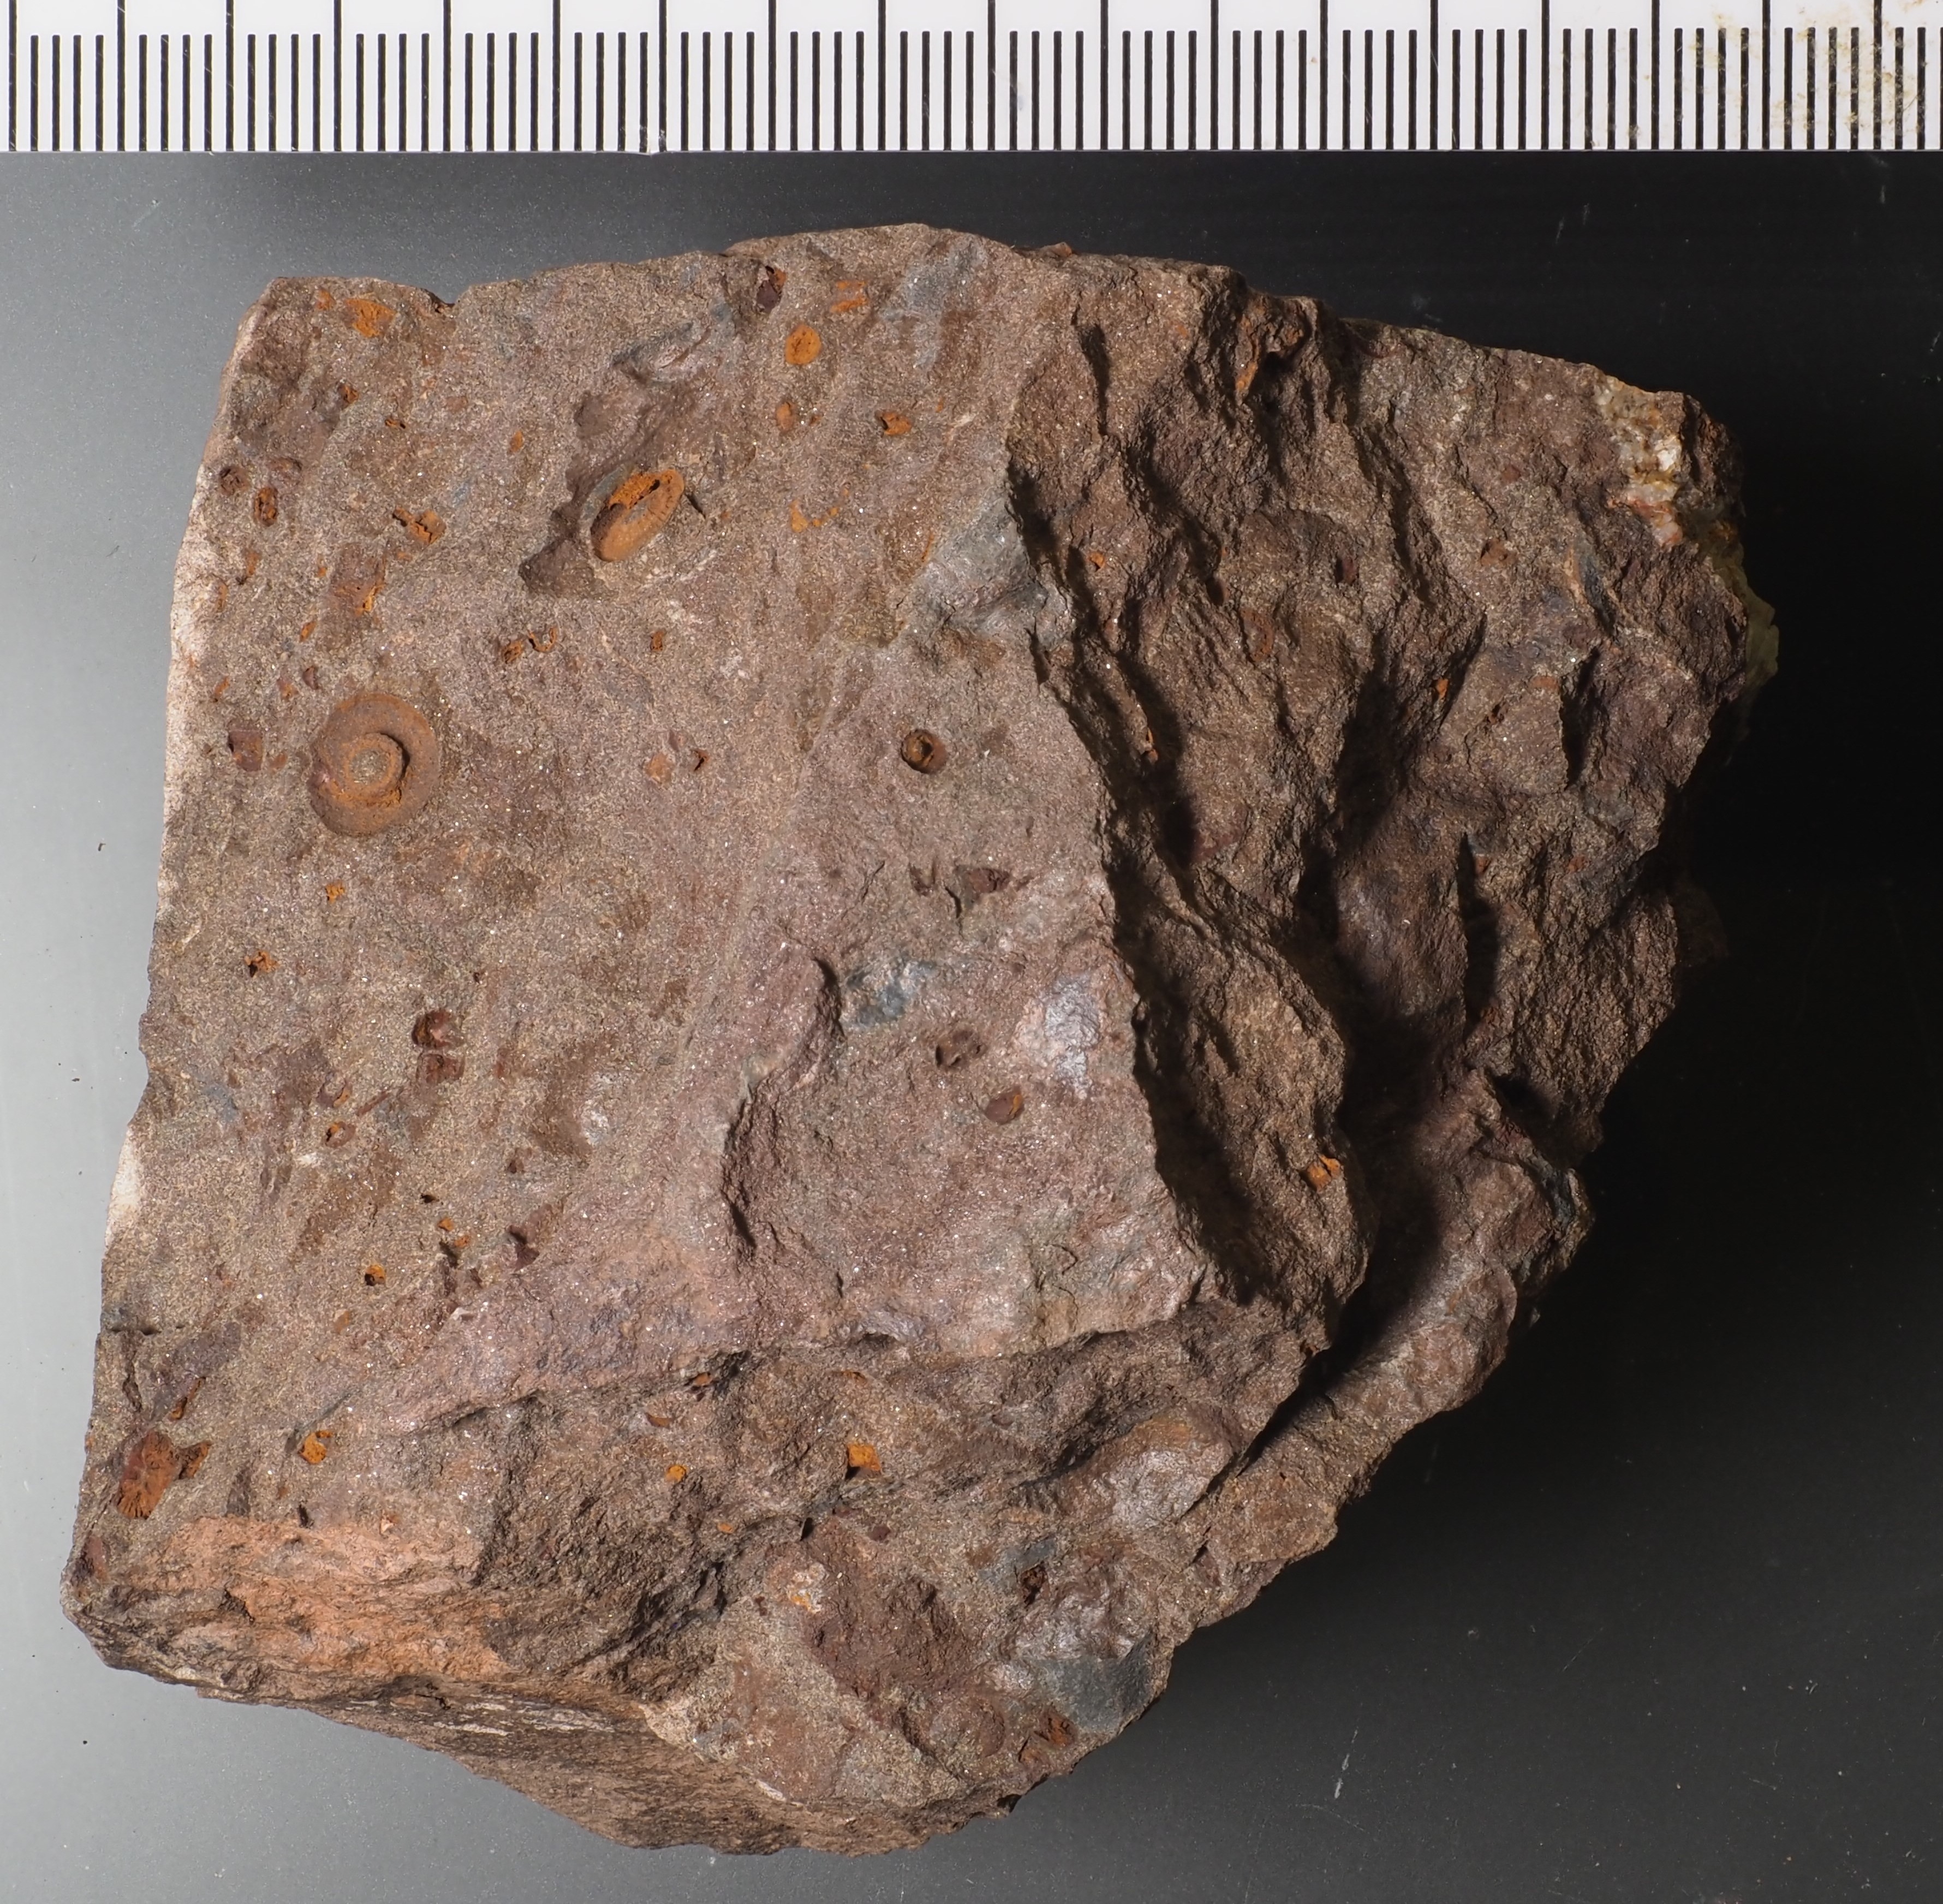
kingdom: Animalia
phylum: Echinodermata
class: Crinoidea
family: Rhodocrinitidae
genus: Acanthocrinus
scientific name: Acanthocrinus
